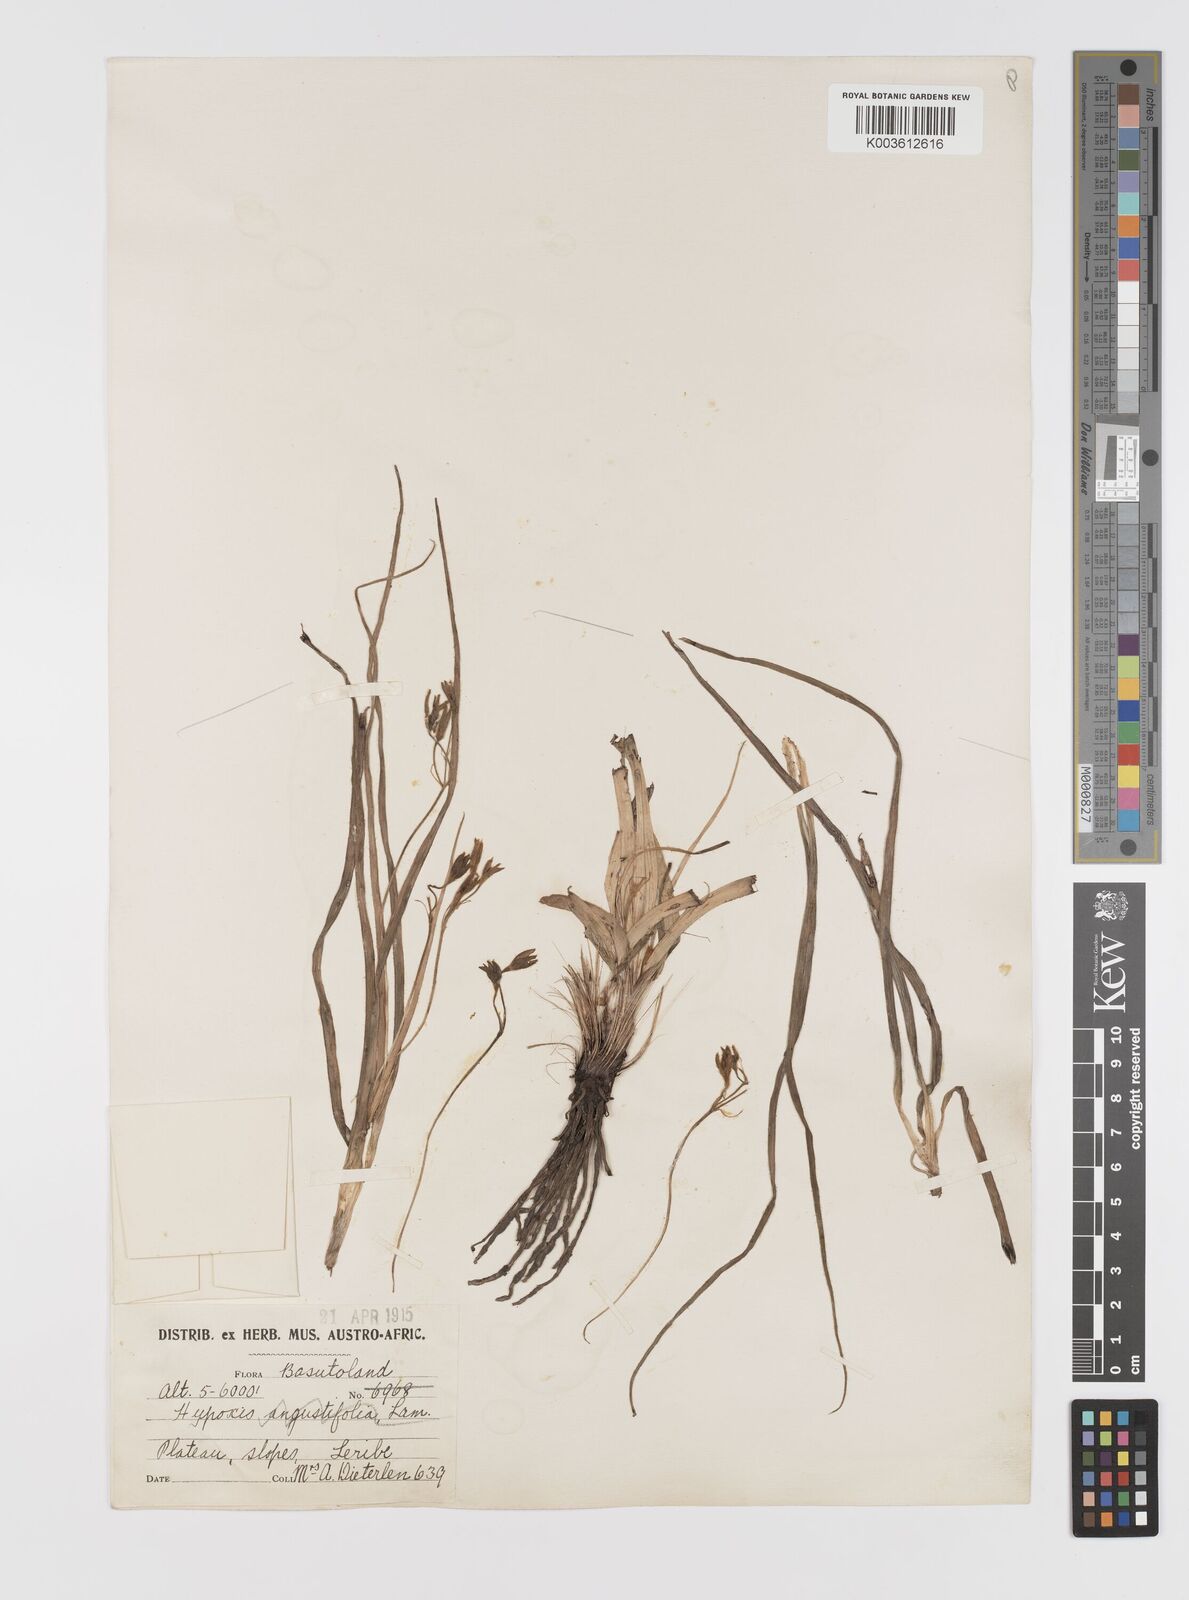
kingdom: Plantae
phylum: Tracheophyta
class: Liliopsida
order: Asparagales
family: Hypoxidaceae
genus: Hypoxis
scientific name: Hypoxis angustifolia
